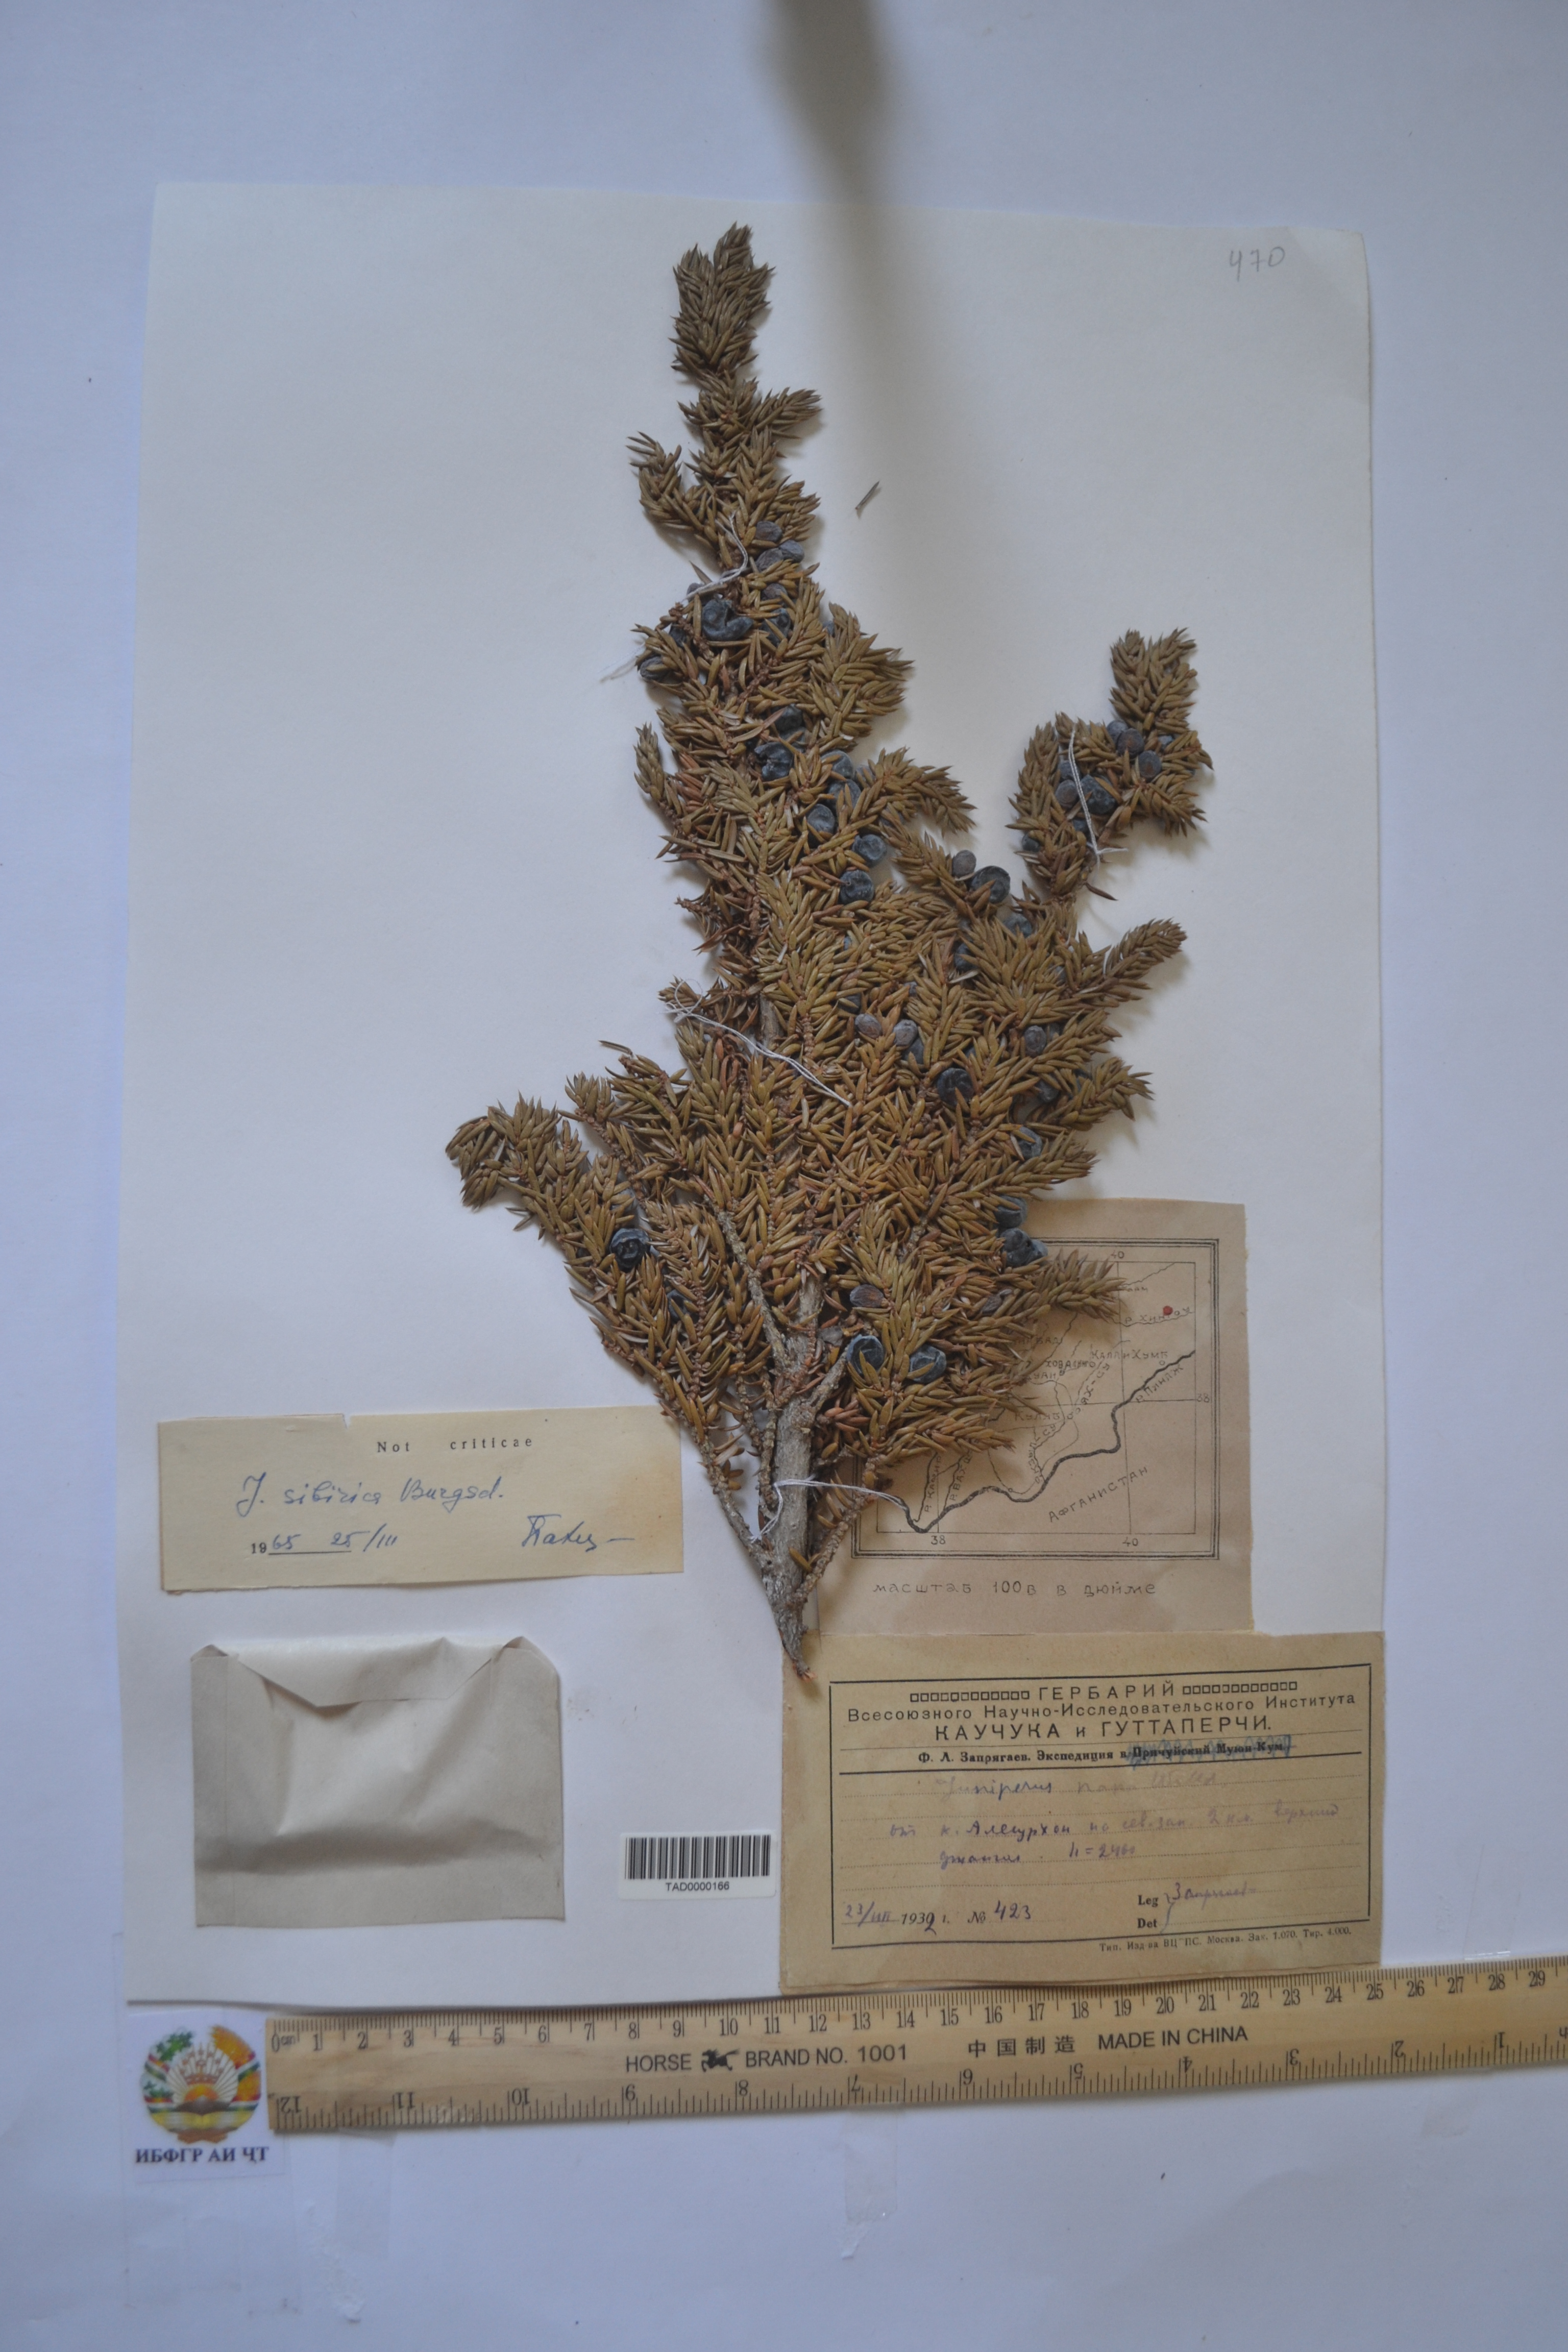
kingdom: Plantae
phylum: Tracheophyta
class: Pinopsida
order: Pinales
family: Cupressaceae
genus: Juniperus
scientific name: Juniperus communis
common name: Common juniper
